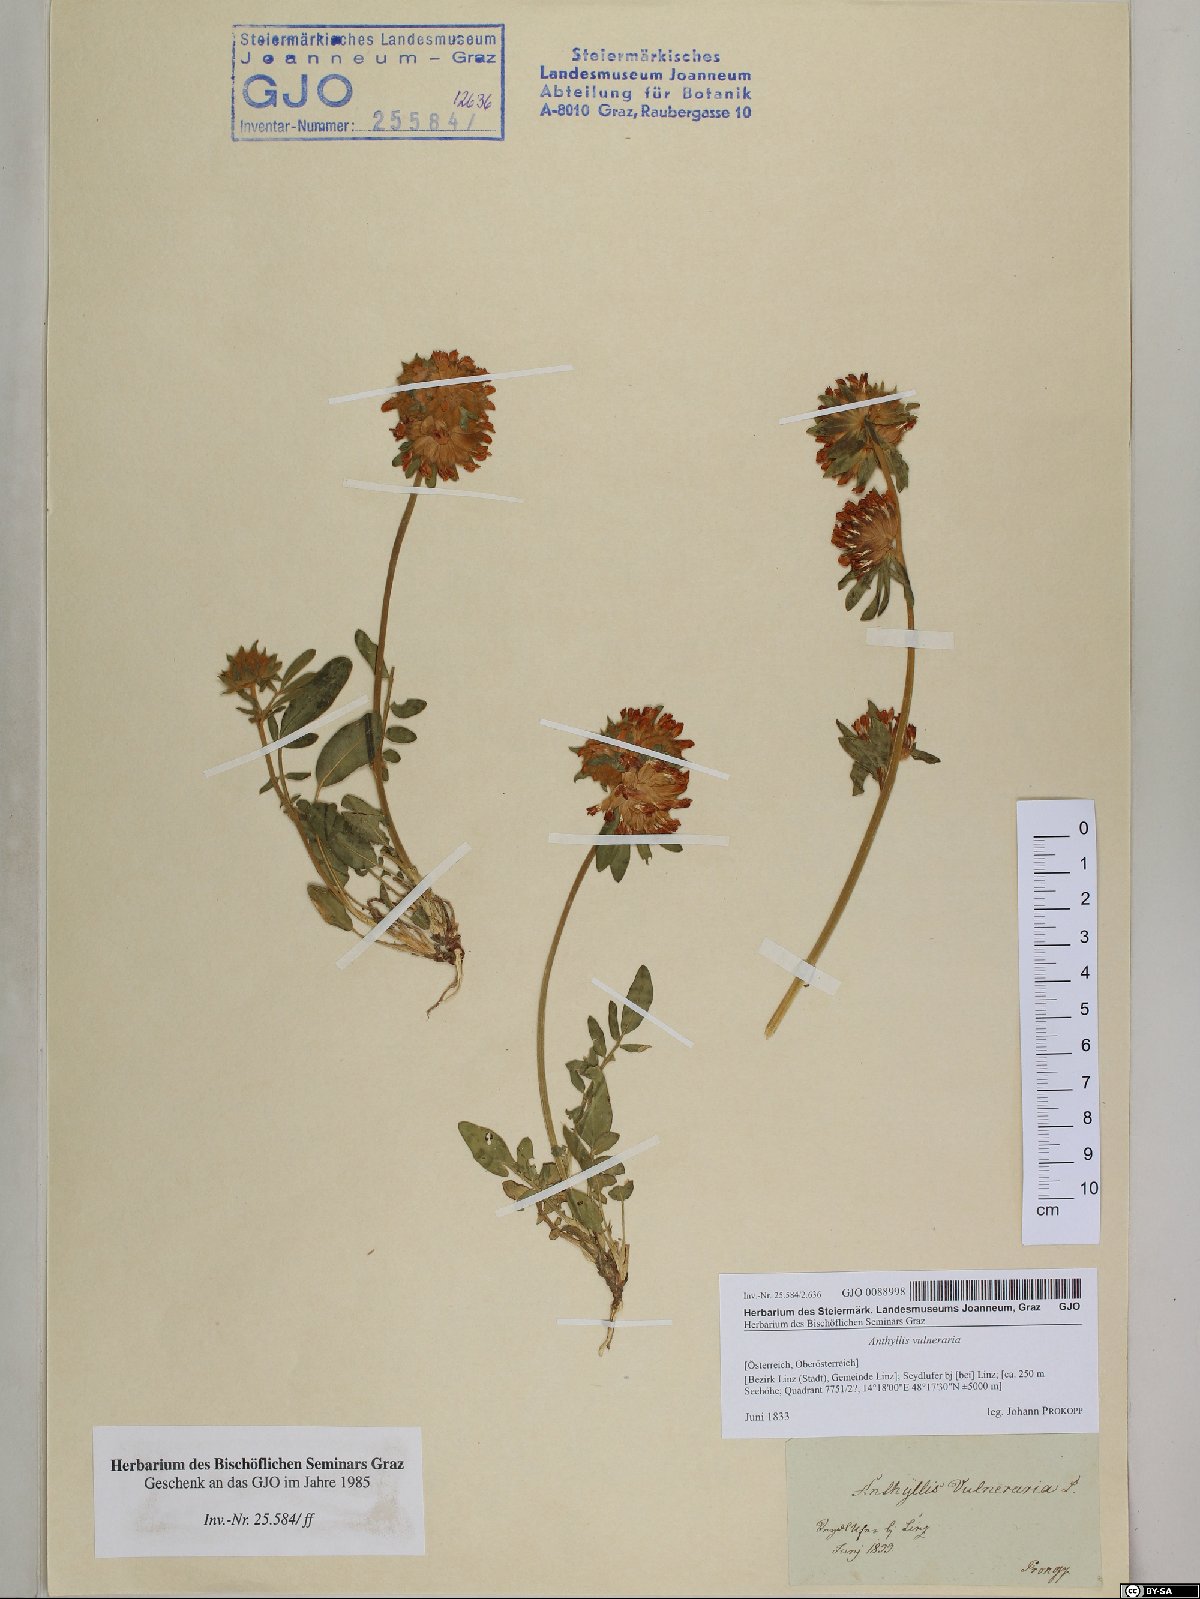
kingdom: Plantae
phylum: Tracheophyta
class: Magnoliopsida
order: Fabales
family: Fabaceae
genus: Anthyllis
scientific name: Anthyllis vulneraria
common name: Kidney vetch
